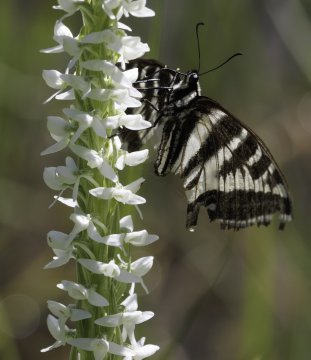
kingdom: Animalia
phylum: Arthropoda
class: Insecta
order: Lepidoptera
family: Papilionidae
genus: Pterourus
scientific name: Pterourus eurymedon
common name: Pale Swallowtail
